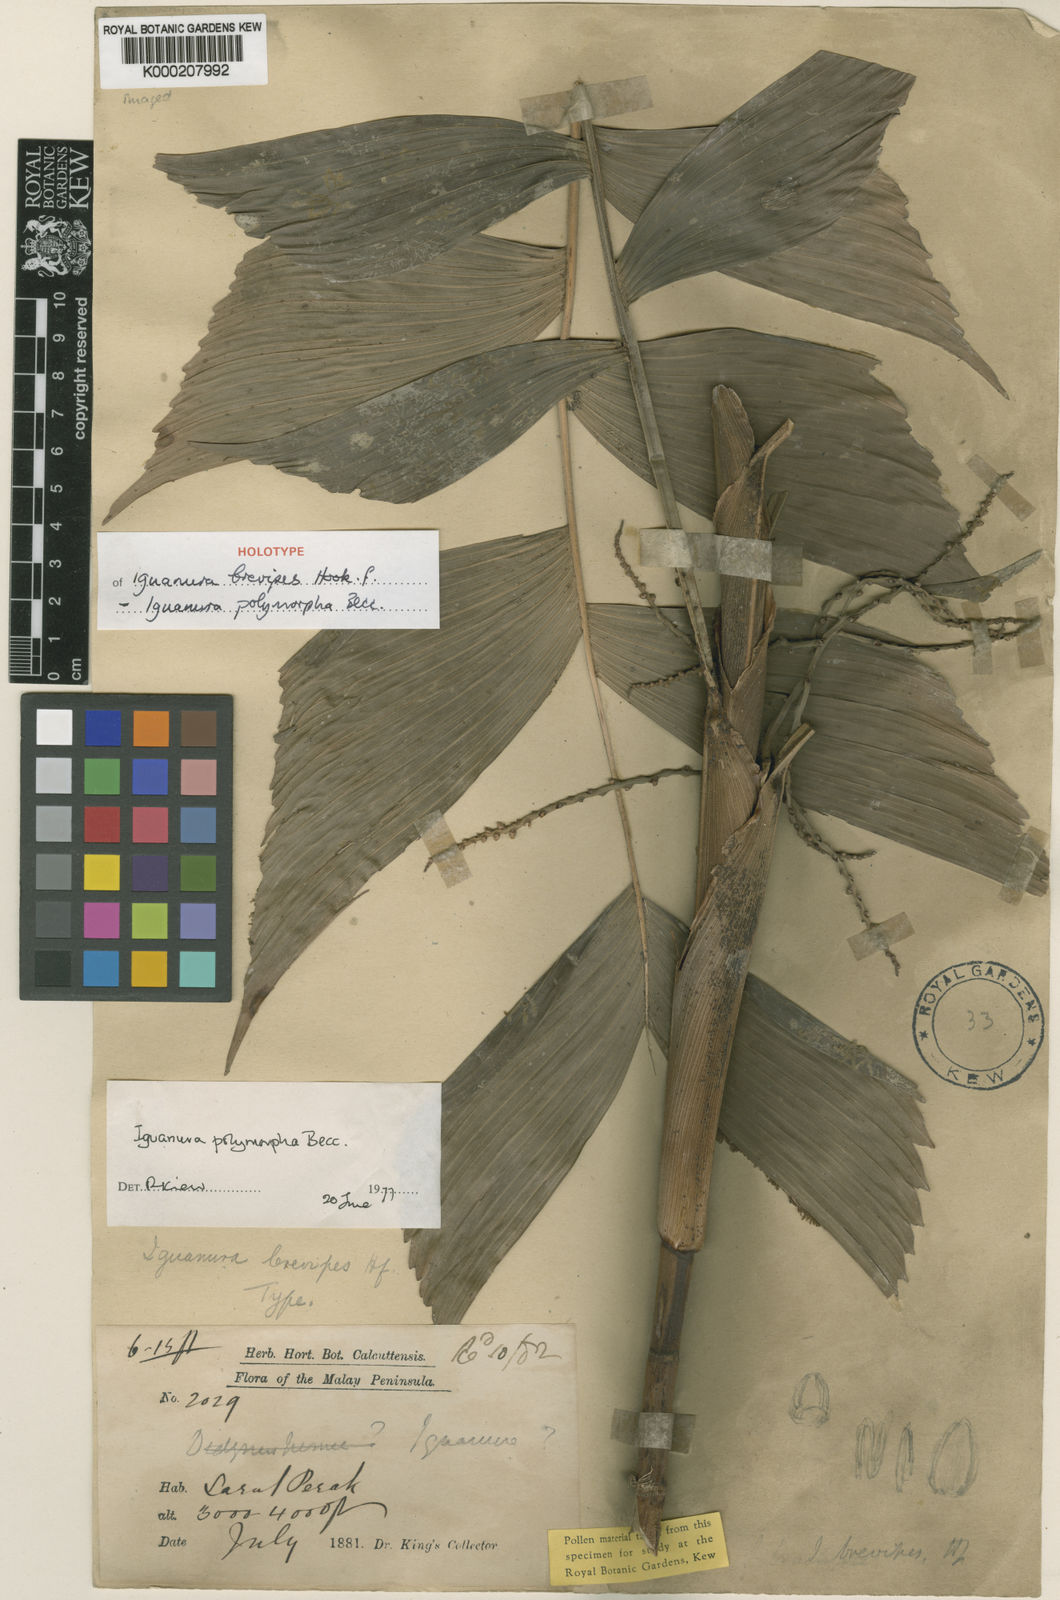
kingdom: Plantae
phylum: Tracheophyta
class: Liliopsida
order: Arecales
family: Arecaceae
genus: Iguanura
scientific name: Iguanura polymorpha
